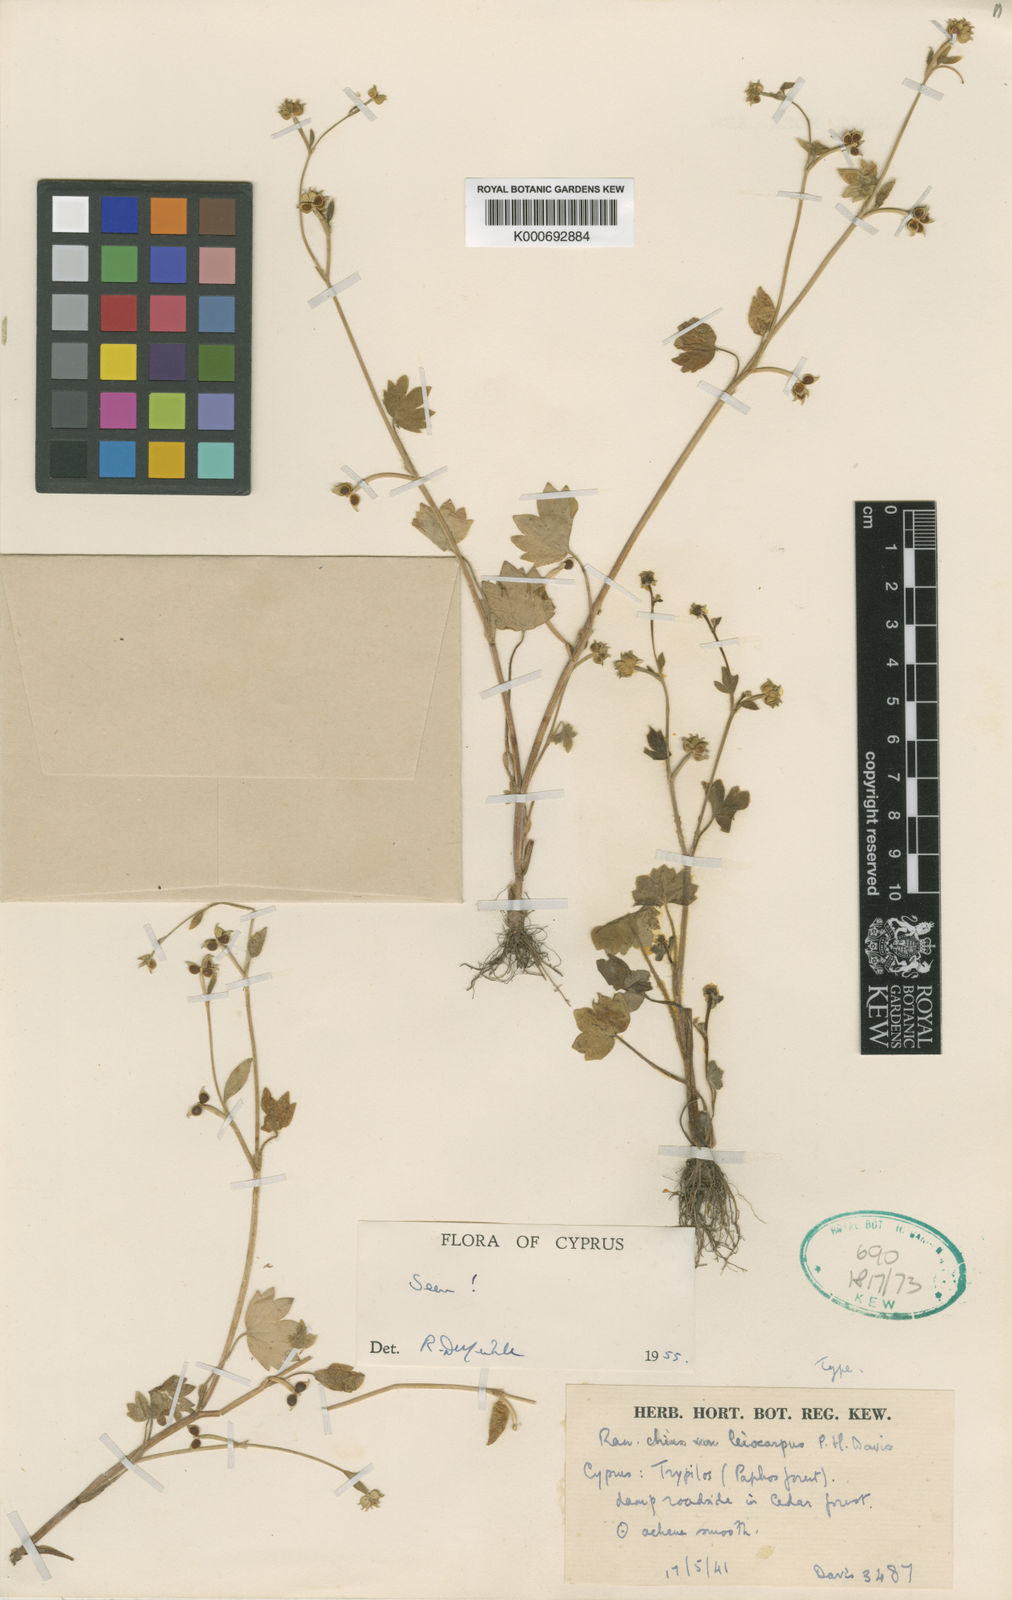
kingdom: Plantae
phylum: Tracheophyta
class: Magnoliopsida
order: Ranunculales
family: Ranunculaceae
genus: Ranunculus
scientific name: Ranunculus chius
